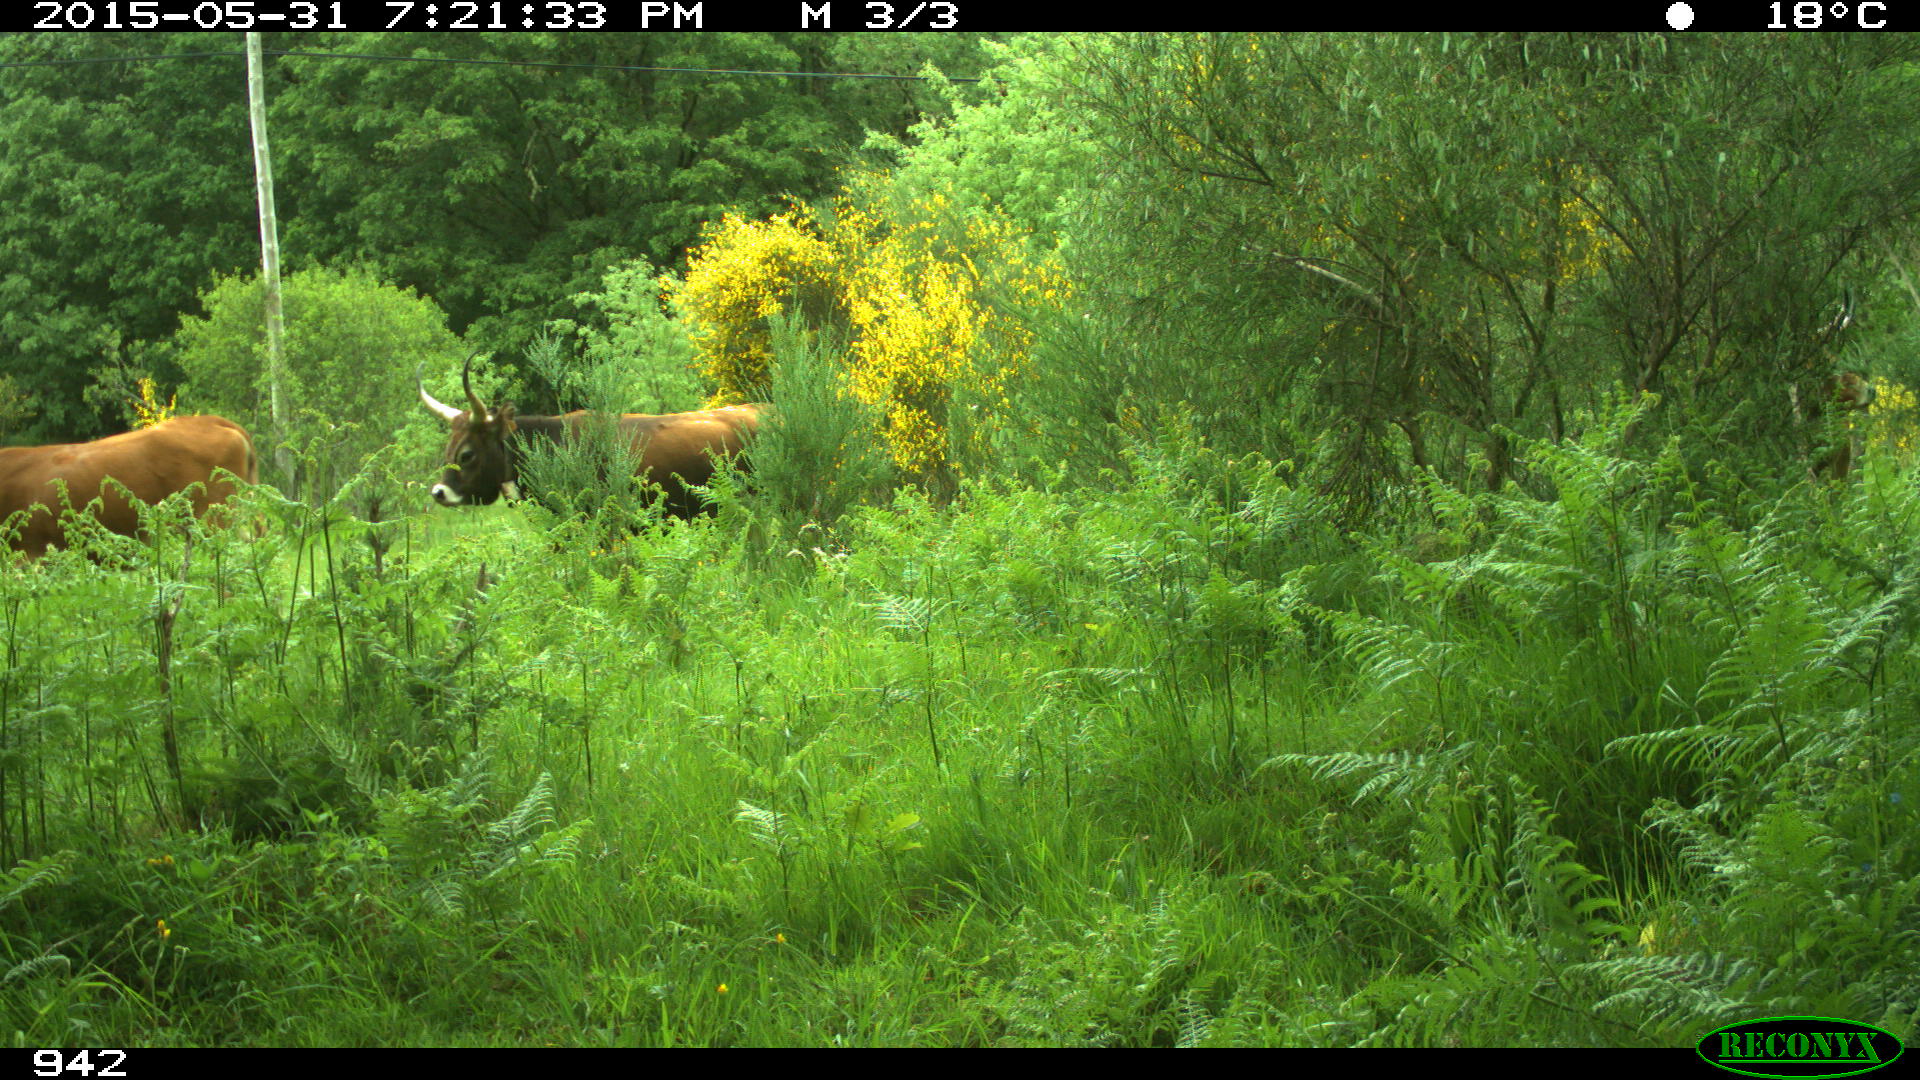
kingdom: Animalia
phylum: Chordata
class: Mammalia
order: Artiodactyla
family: Bovidae
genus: Bos
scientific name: Bos taurus
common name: Domesticated cattle
